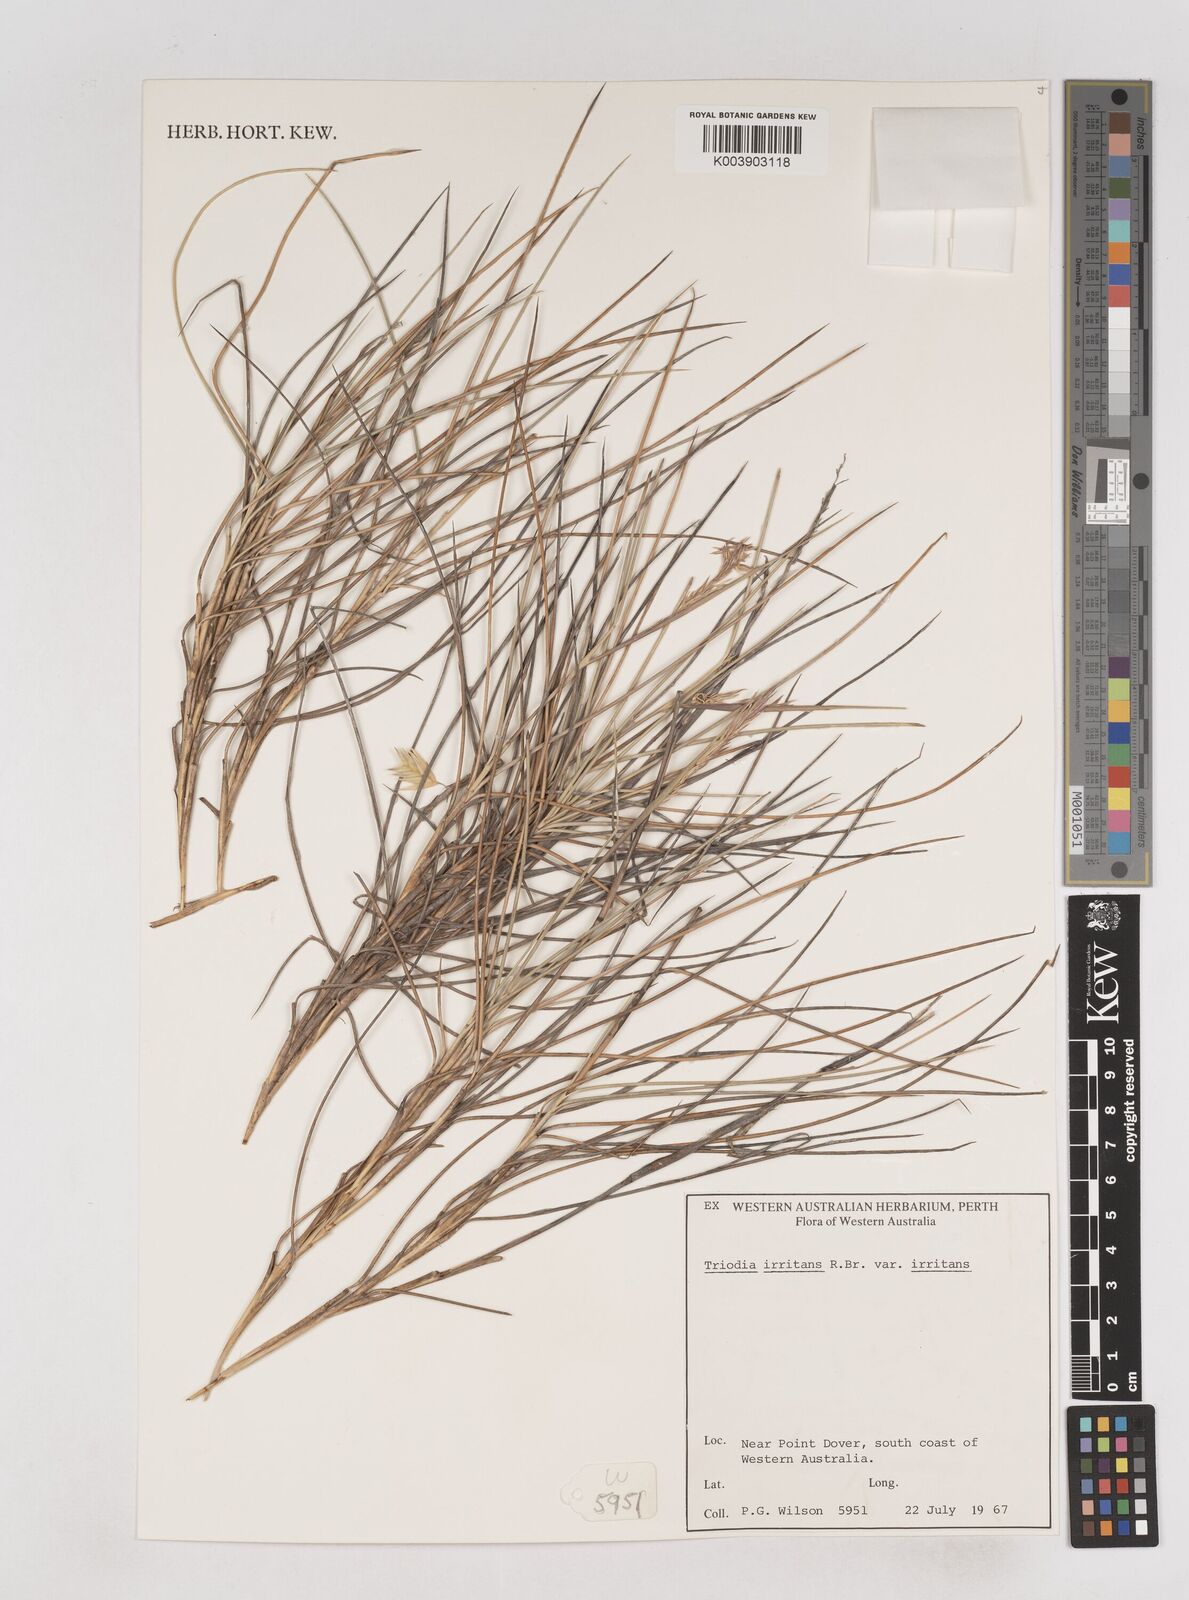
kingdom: Plantae
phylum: Tracheophyta
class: Liliopsida
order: Poales
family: Poaceae
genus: Triodia
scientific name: Triodia irritans
